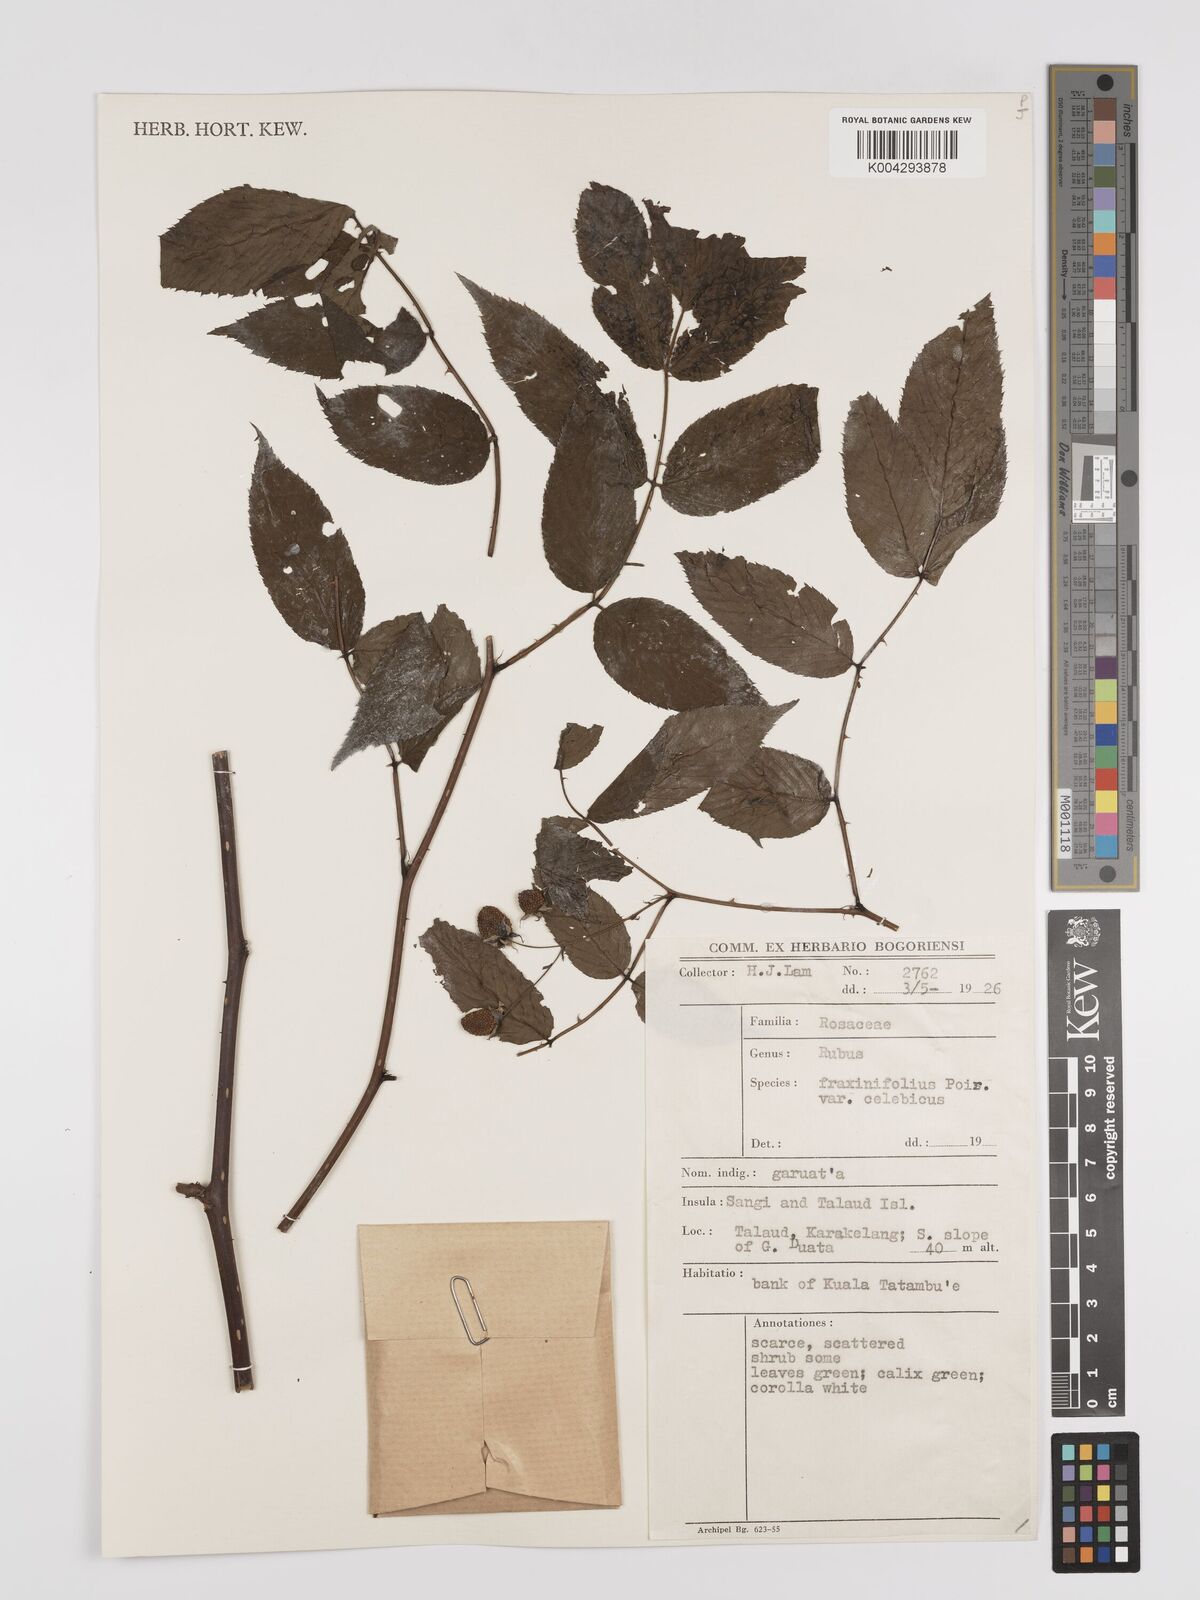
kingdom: Plantae
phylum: Tracheophyta
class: Magnoliopsida
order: Rosales
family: Rosaceae
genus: Rubus
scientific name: Rubus fraxinifolius
